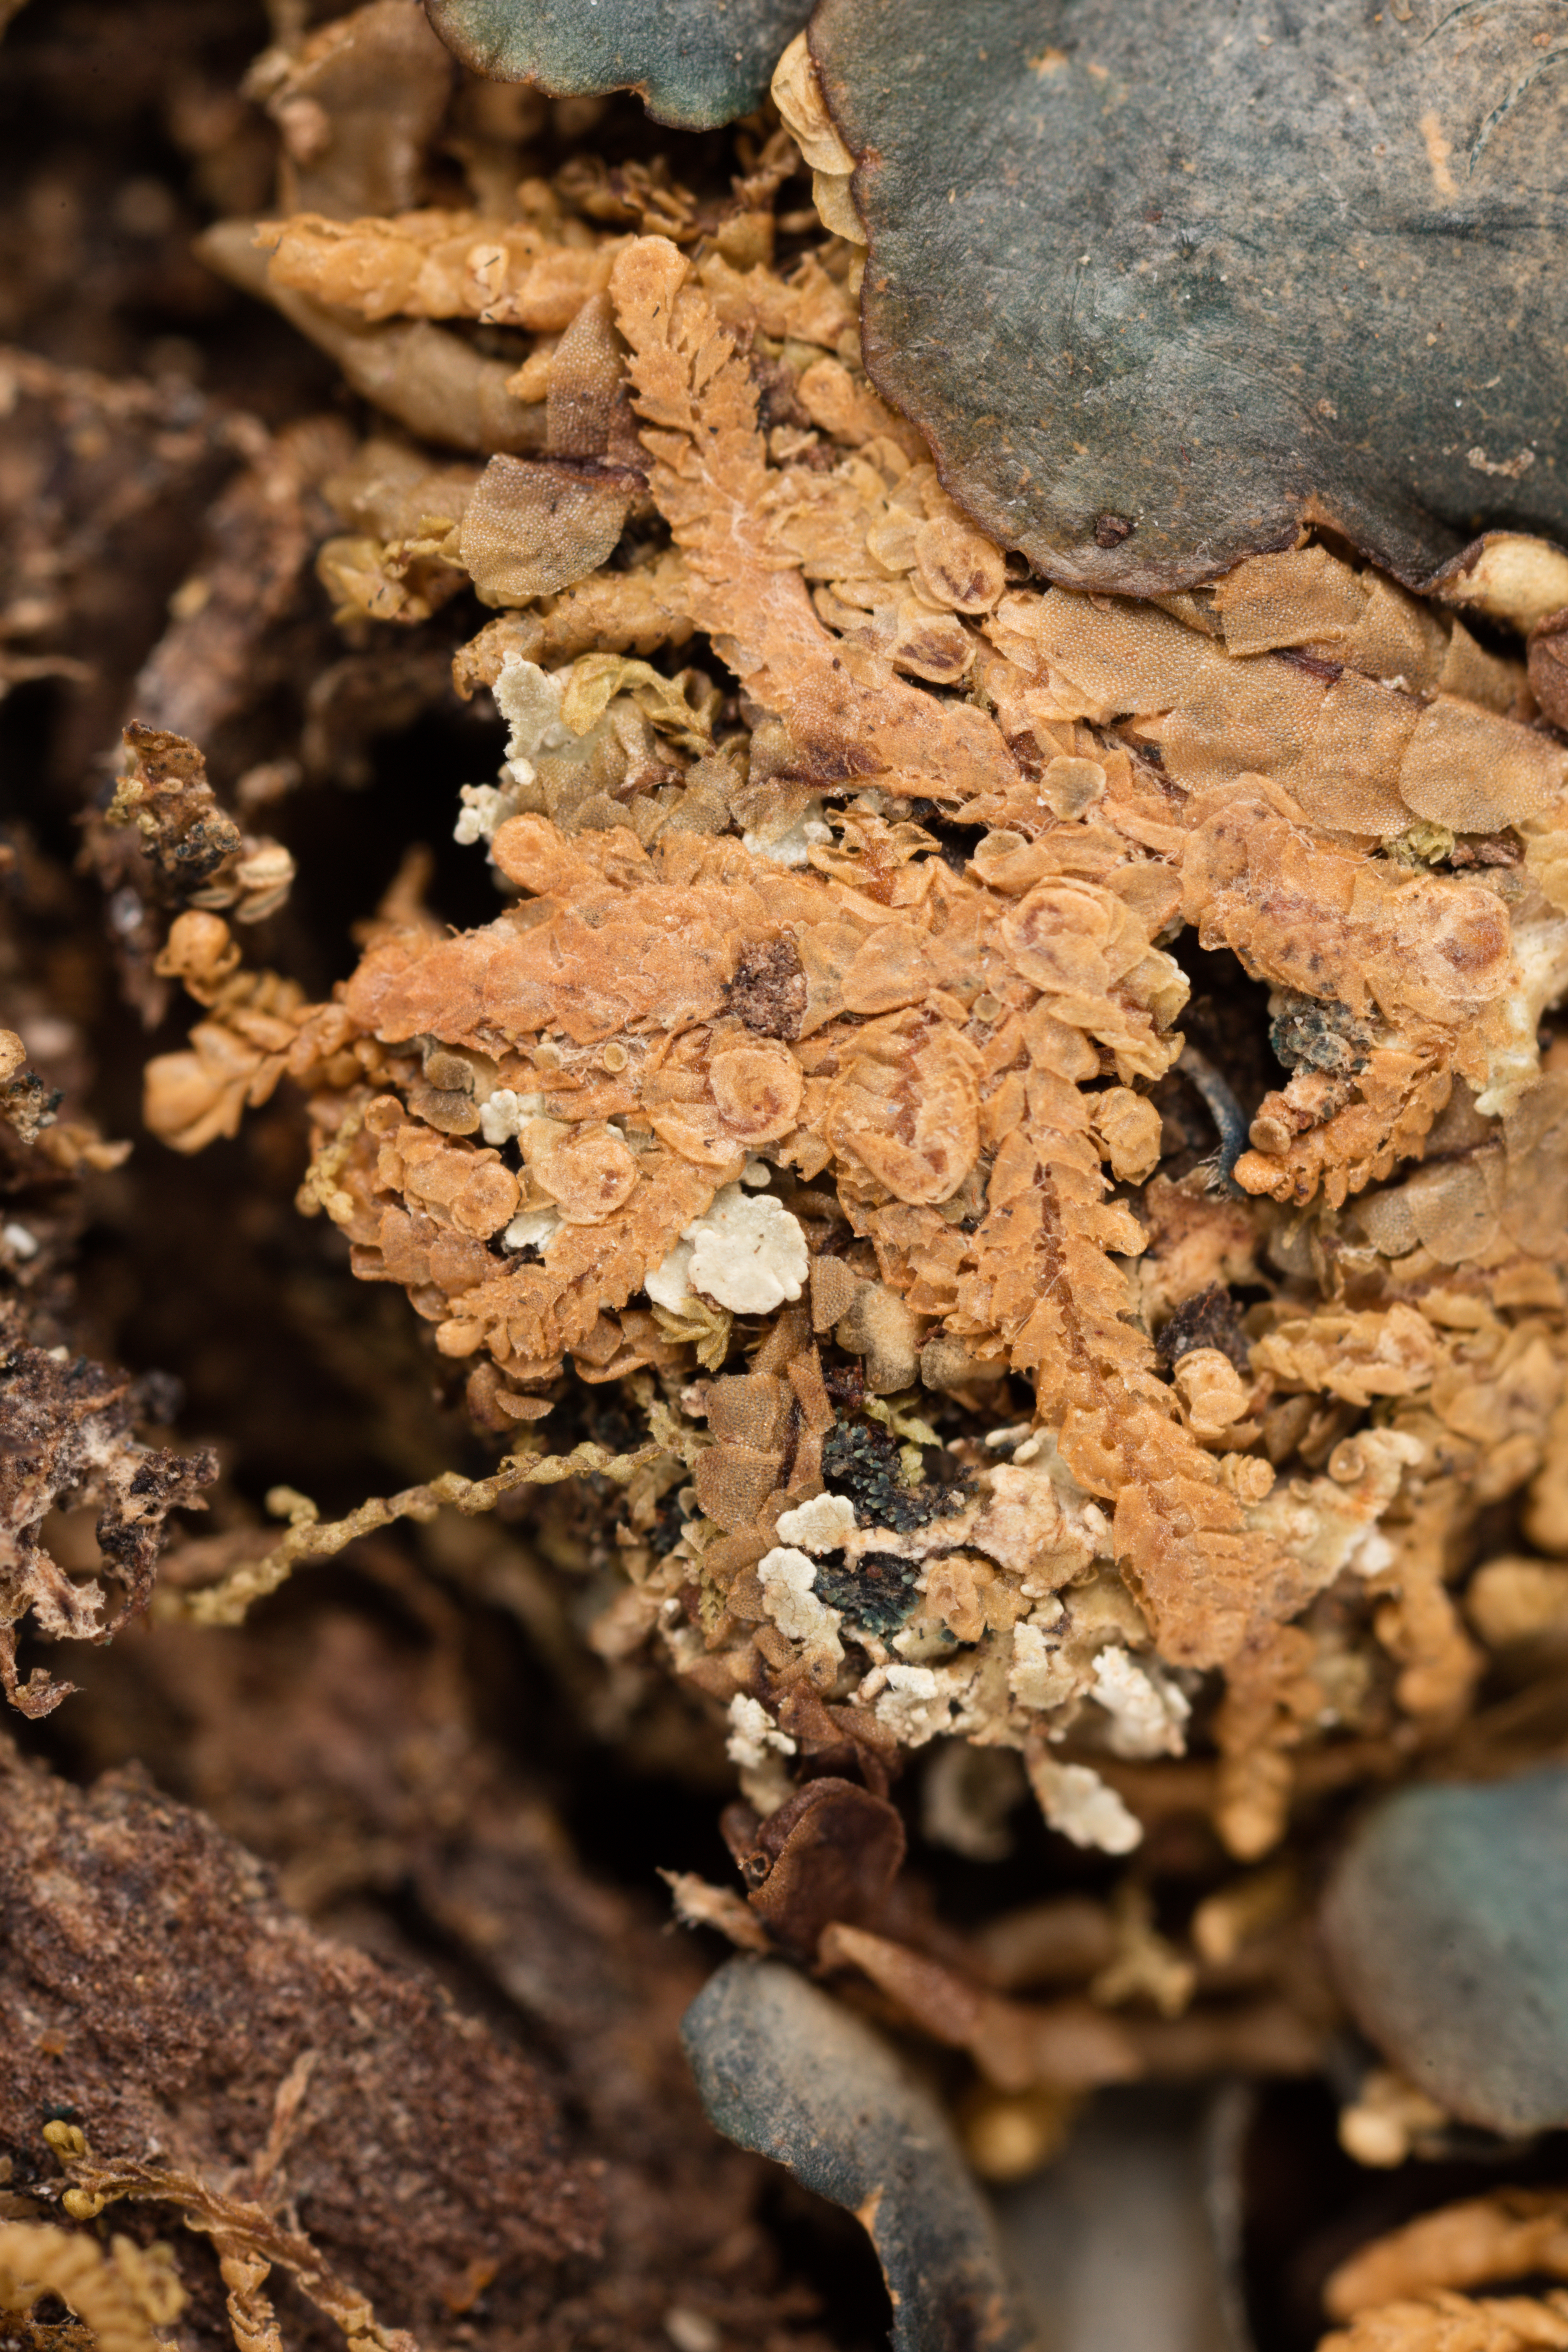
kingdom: Fungi
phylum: Ascomycota
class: Lecanoromycetes
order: Peltigerales
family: Lobariaceae
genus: Sticta
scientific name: Sticta
